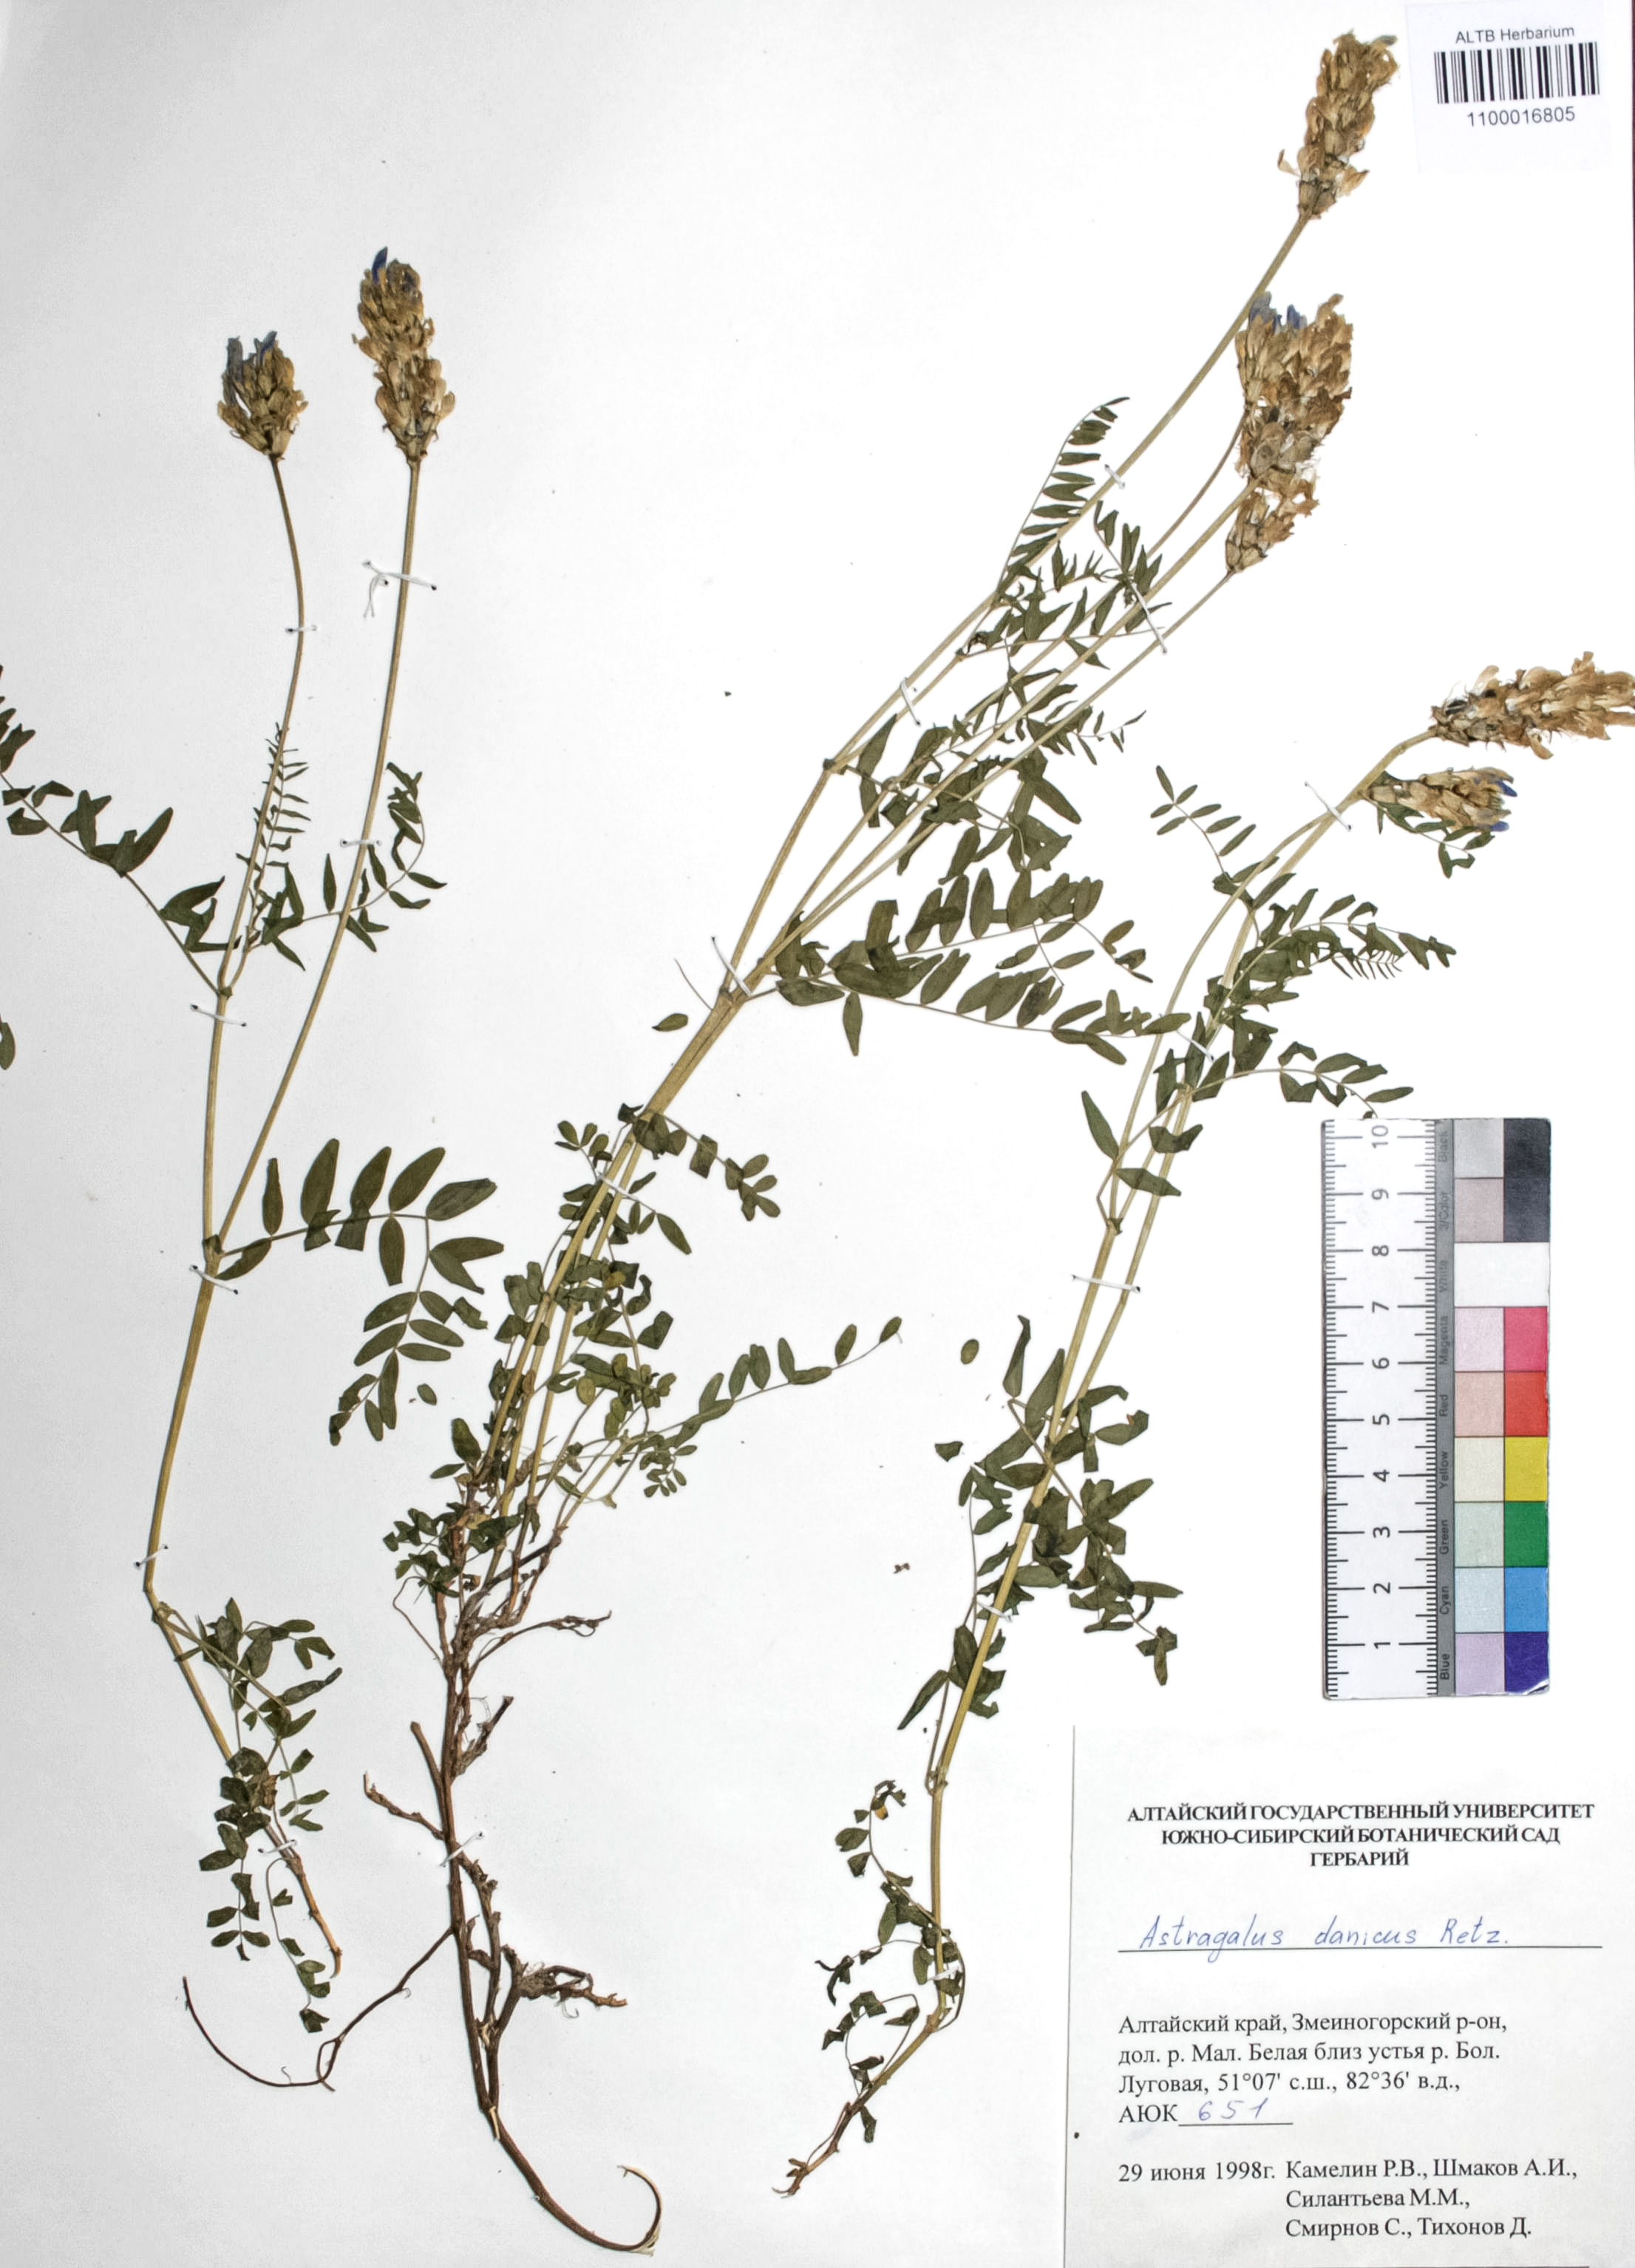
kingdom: Plantae
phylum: Tracheophyta
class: Magnoliopsida
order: Fabales
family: Fabaceae
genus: Astragalus
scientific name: Astragalus danicus
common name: Purple milk-vetch
